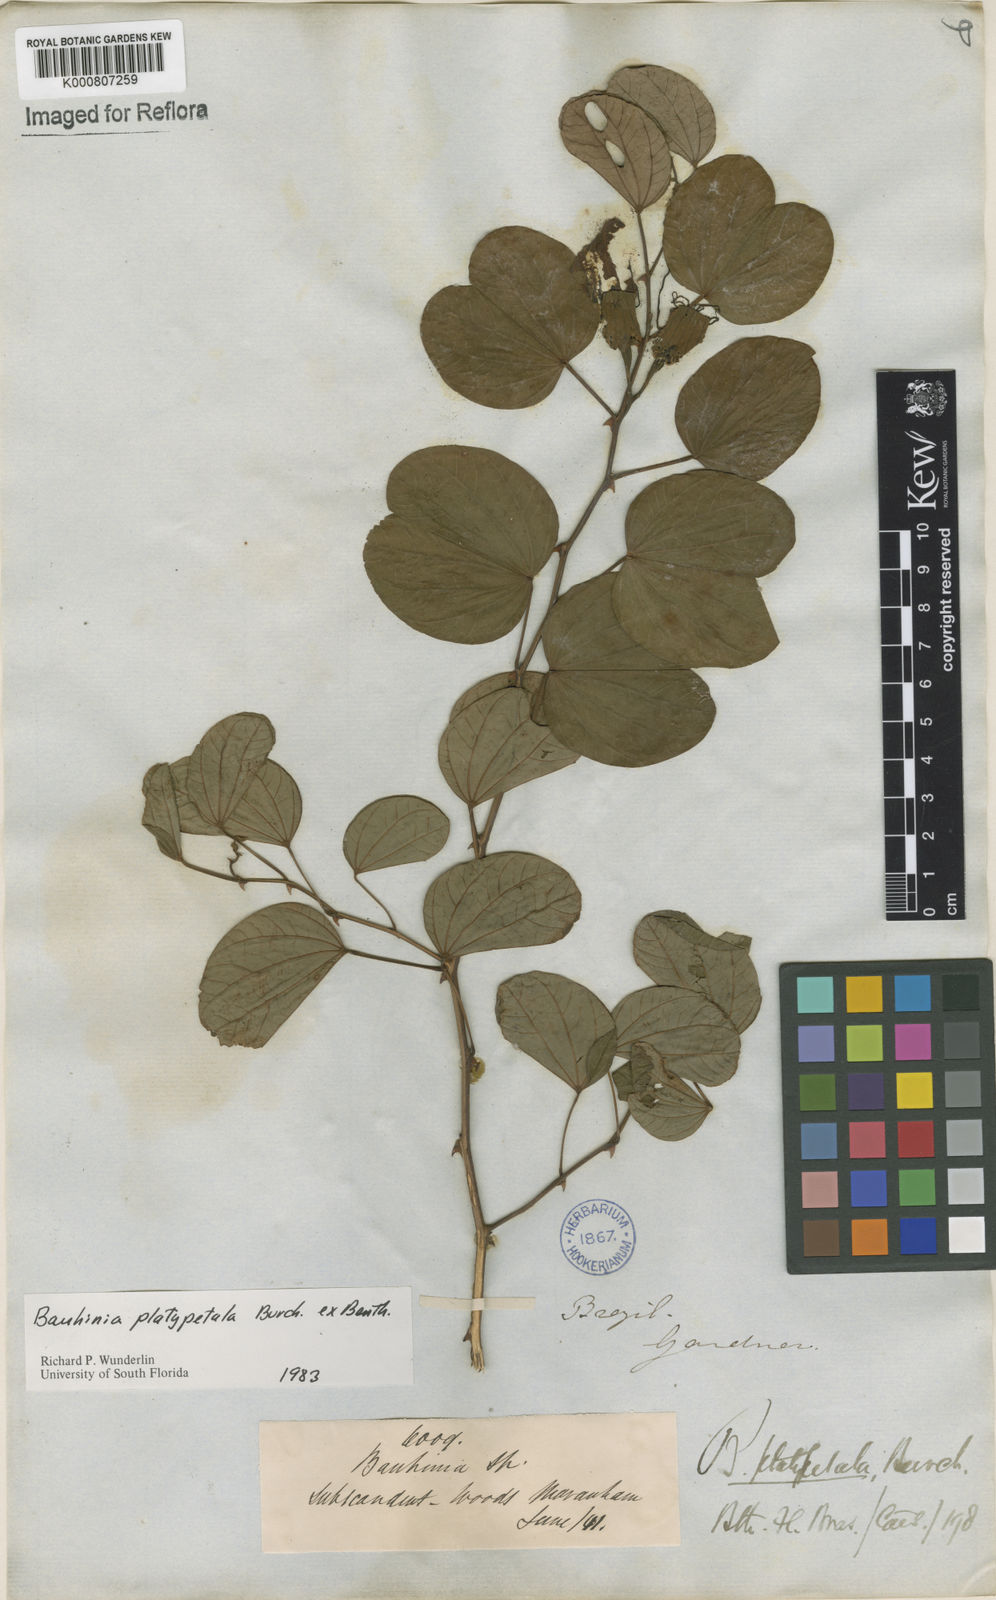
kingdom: Plantae
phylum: Tracheophyta
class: Magnoliopsida
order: Fabales
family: Fabaceae
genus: Bauhinia
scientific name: Bauhinia platypetala
